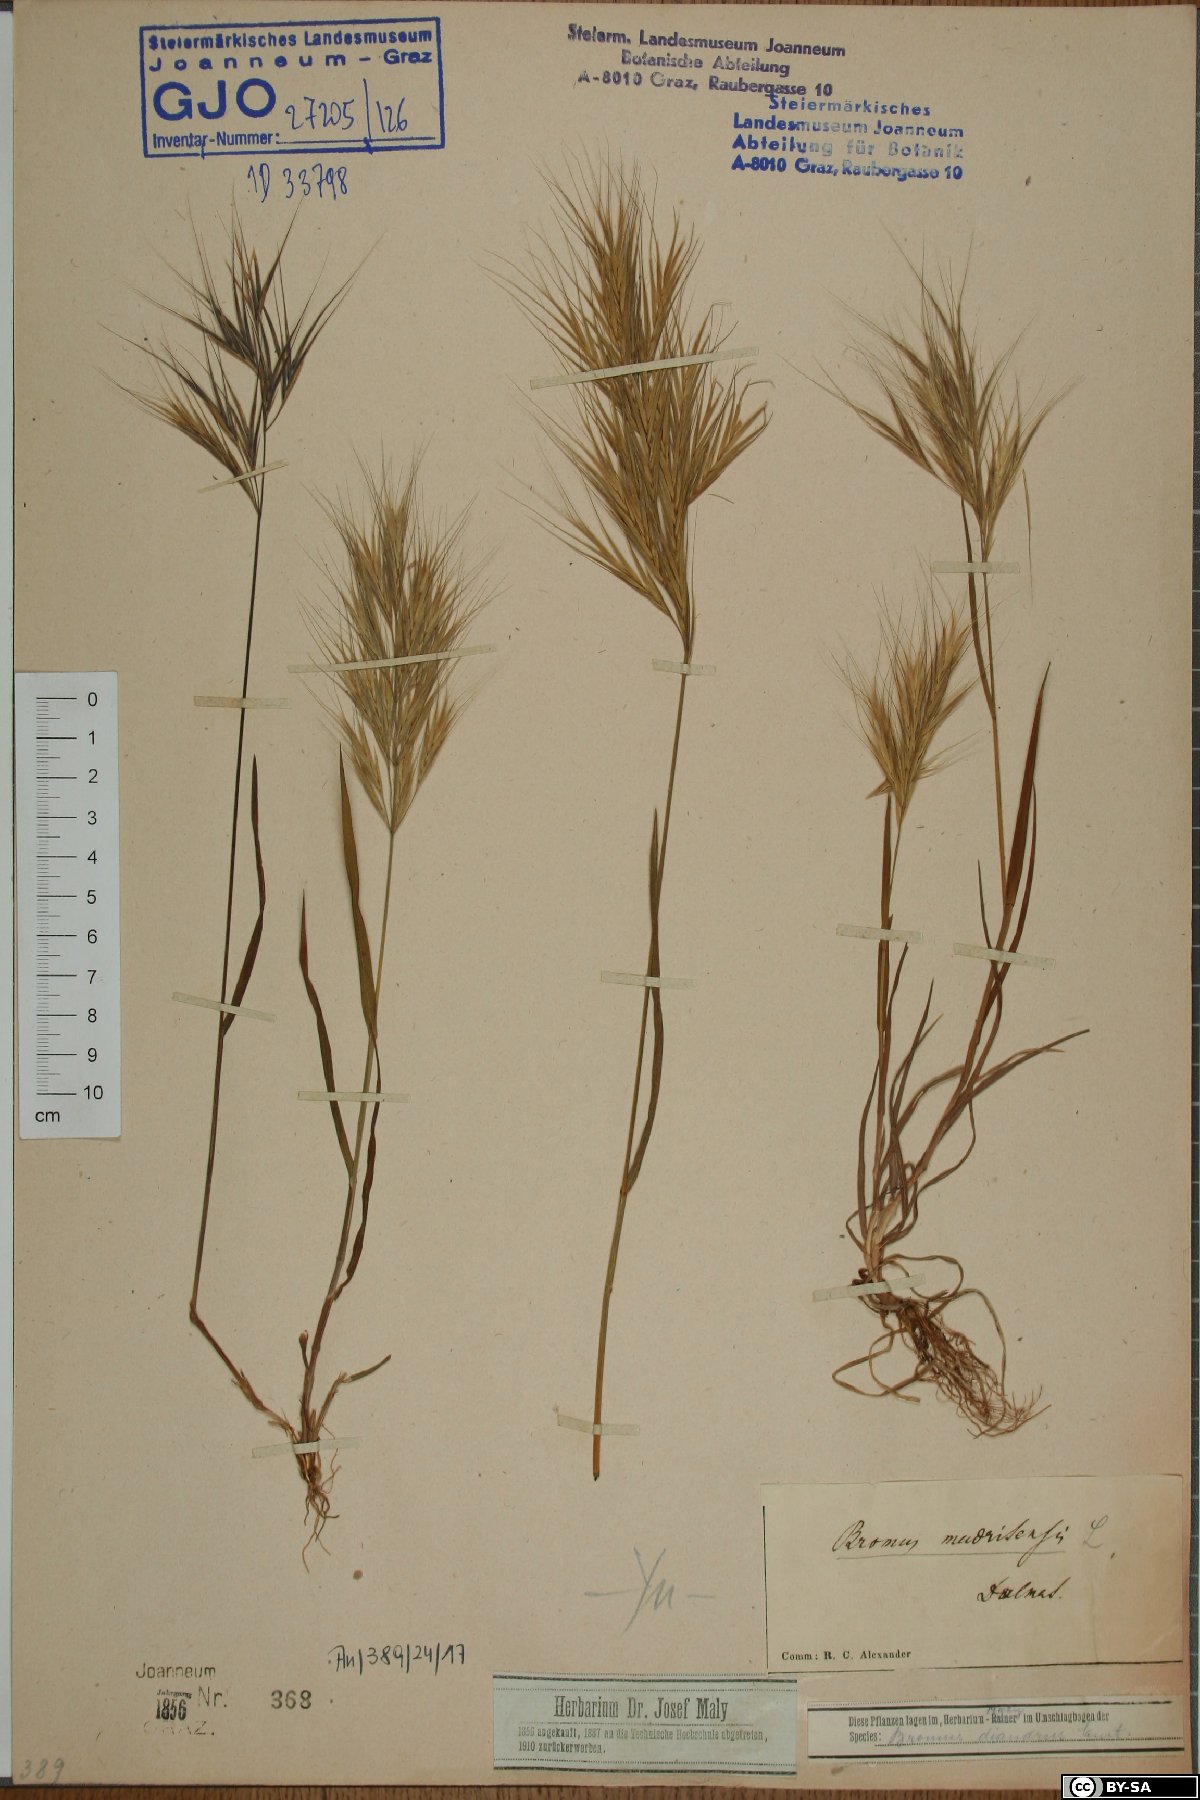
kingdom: Plantae
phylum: Tracheophyta
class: Liliopsida
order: Poales
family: Poaceae
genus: Bromus
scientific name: Bromus madritensis
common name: Compact brome
